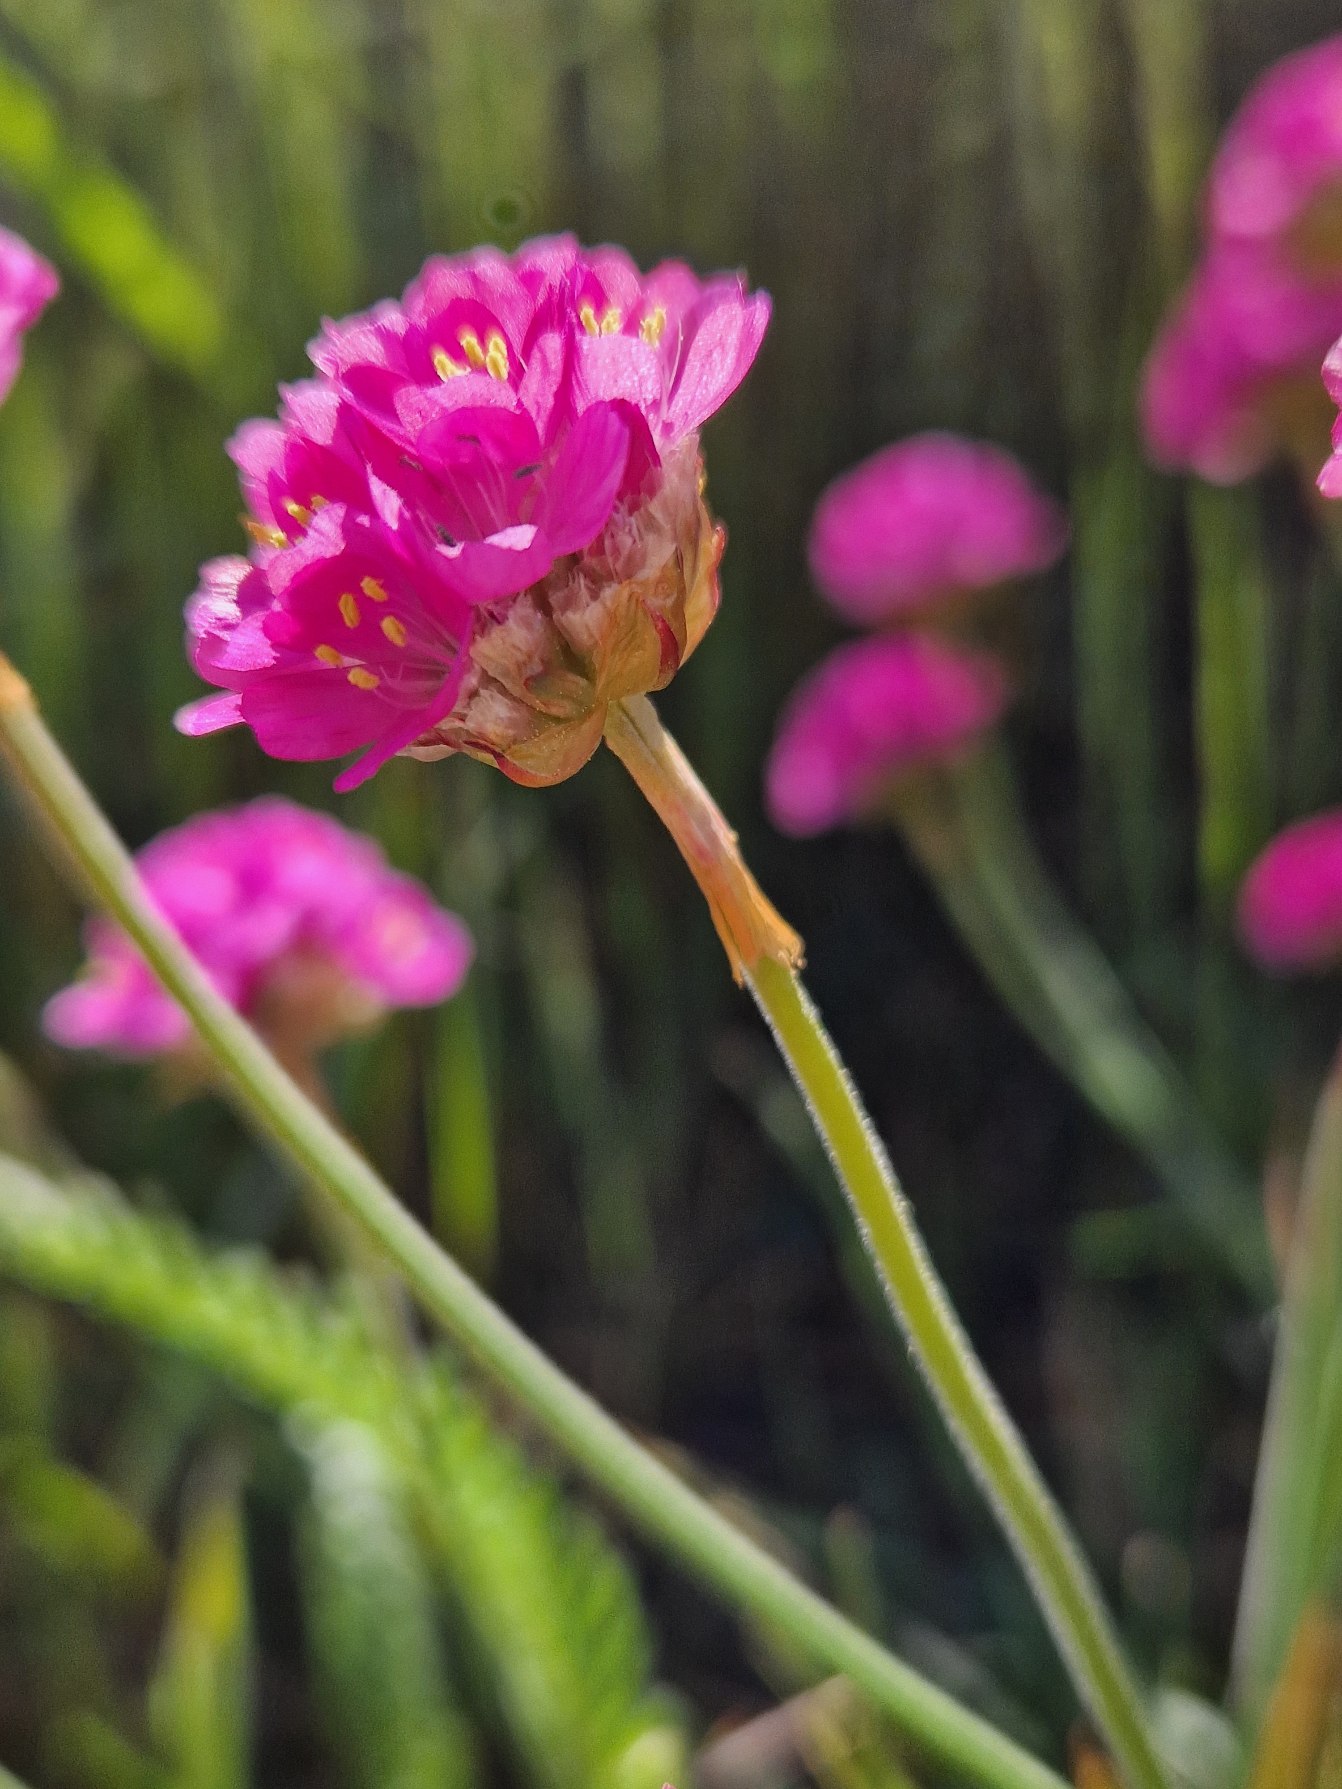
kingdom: Plantae
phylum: Tracheophyta
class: Magnoliopsida
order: Caryophyllales
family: Plumbaginaceae
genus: Armeria
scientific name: Armeria maritima
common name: Engelskgræs
